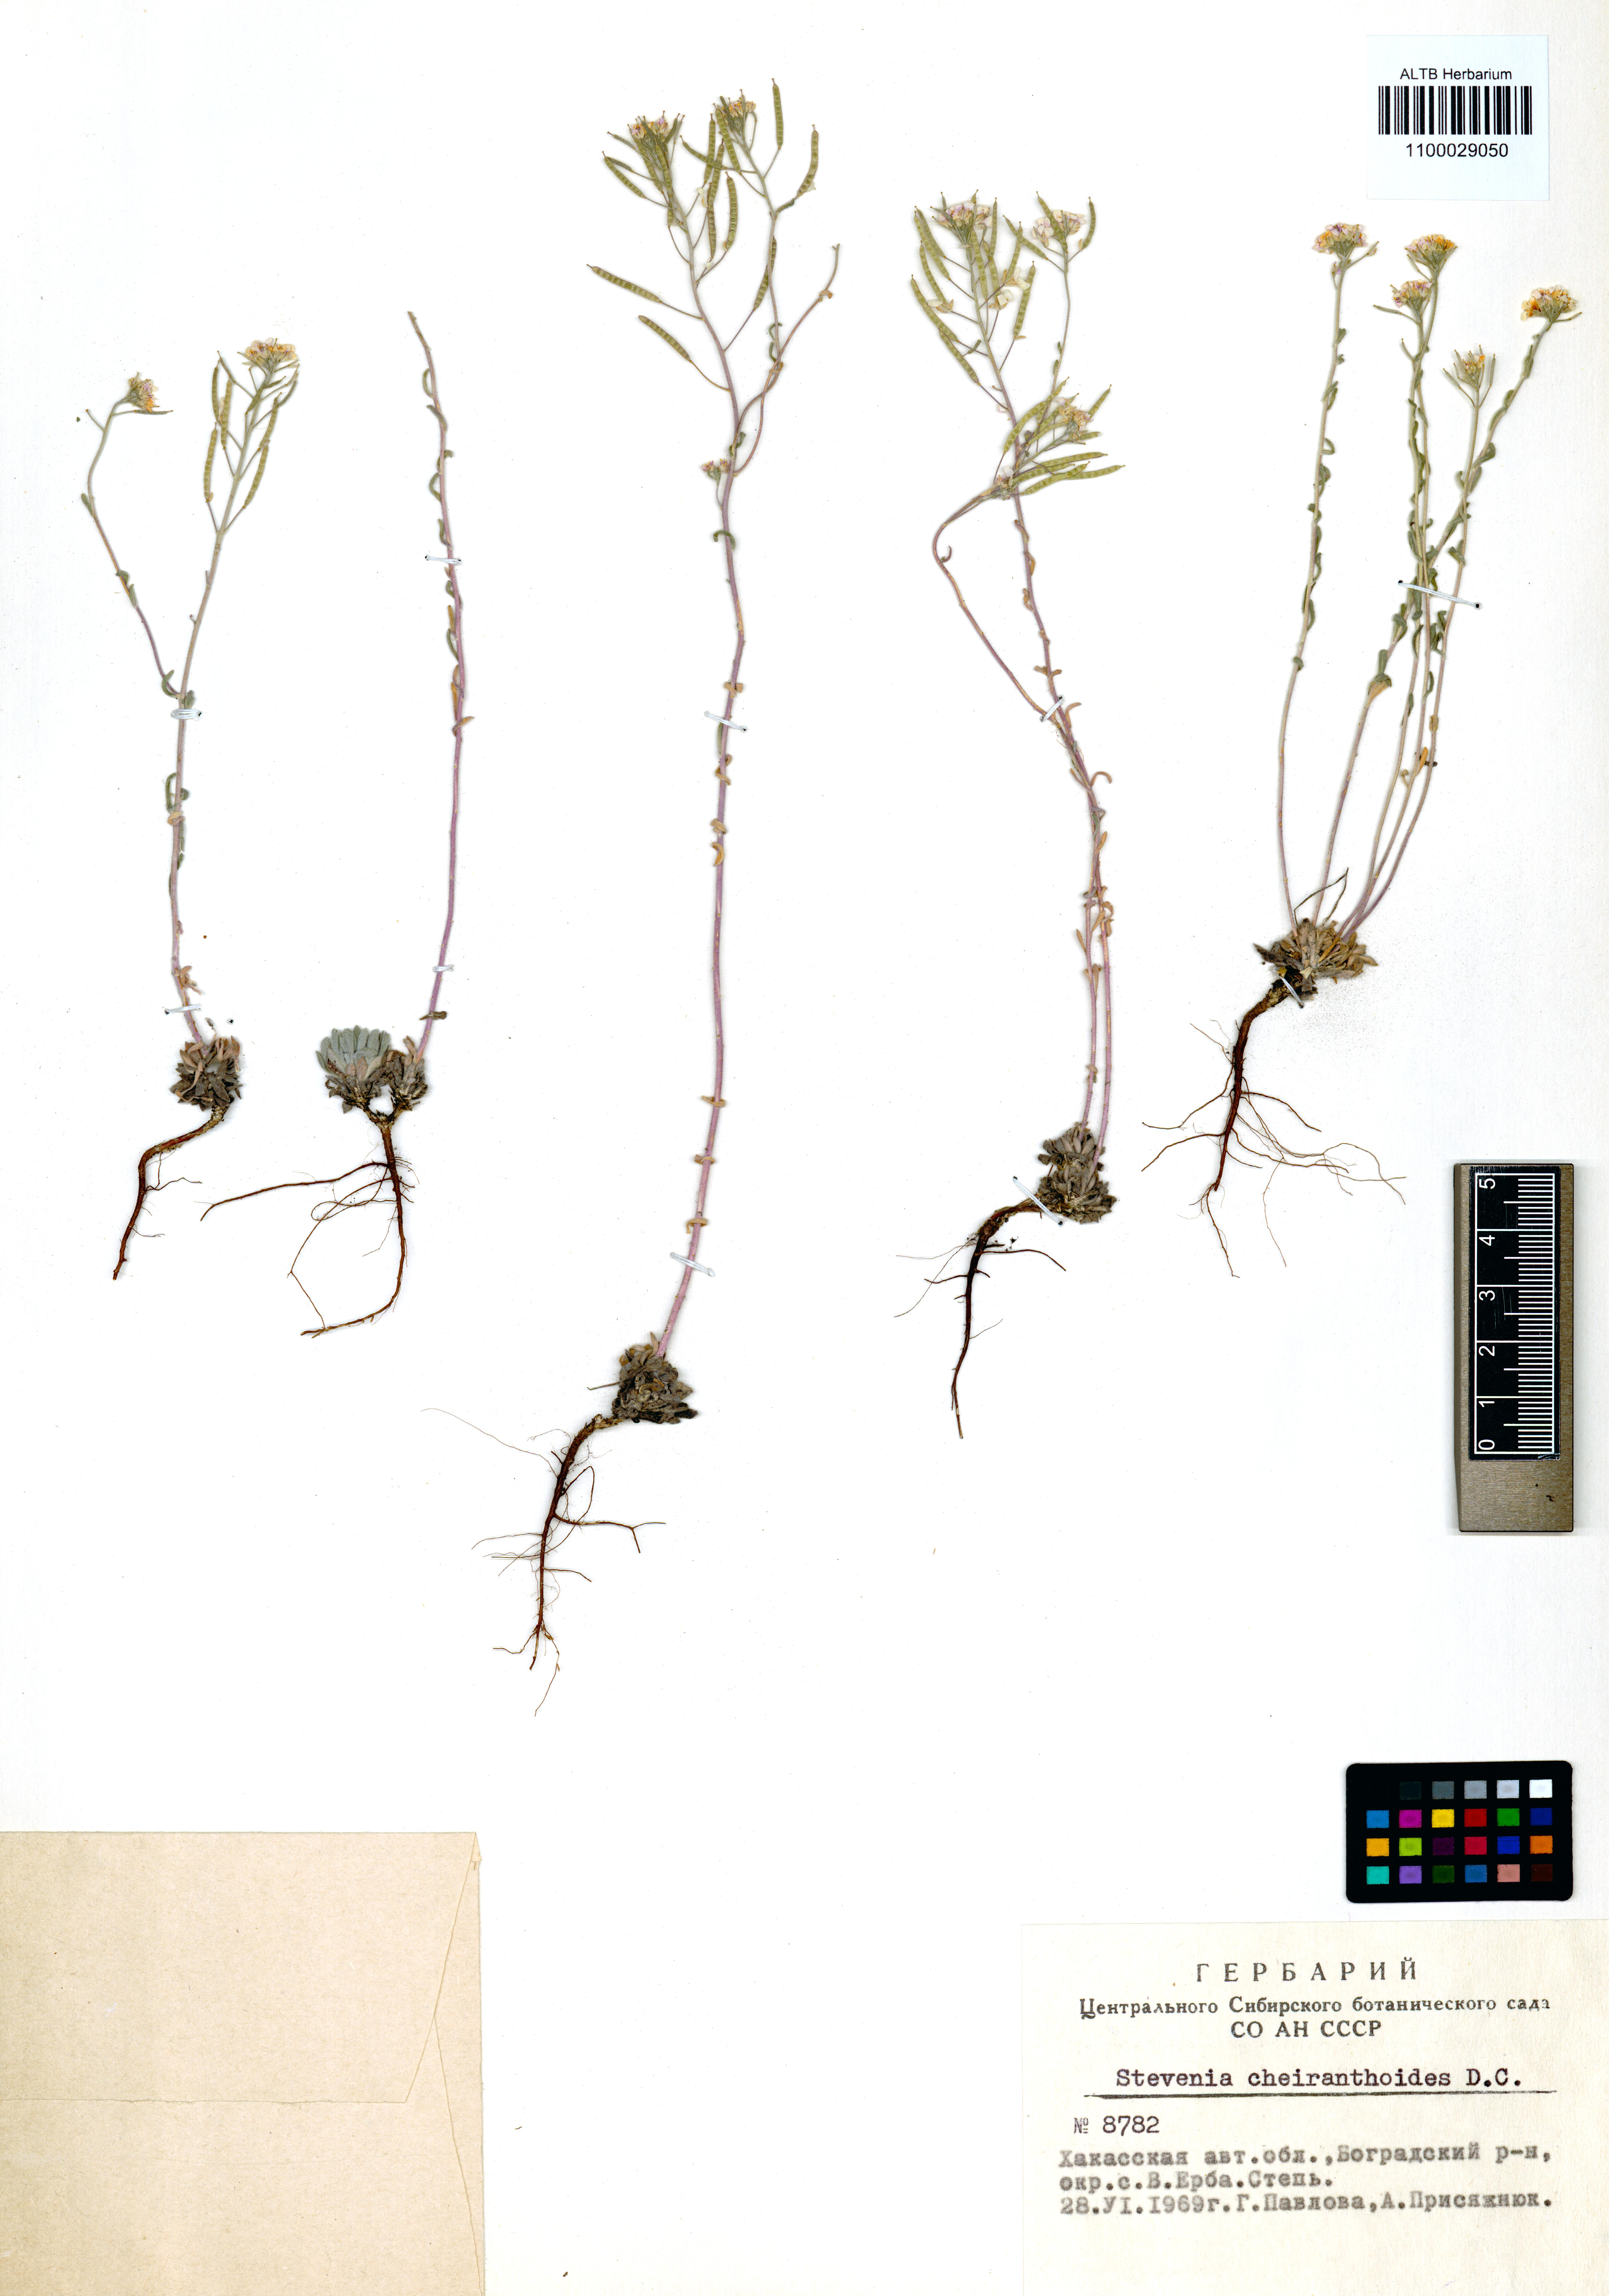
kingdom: Plantae
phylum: Tracheophyta
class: Magnoliopsida
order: Brassicales
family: Brassicaceae
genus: Stevenia
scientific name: Stevenia incarnata
